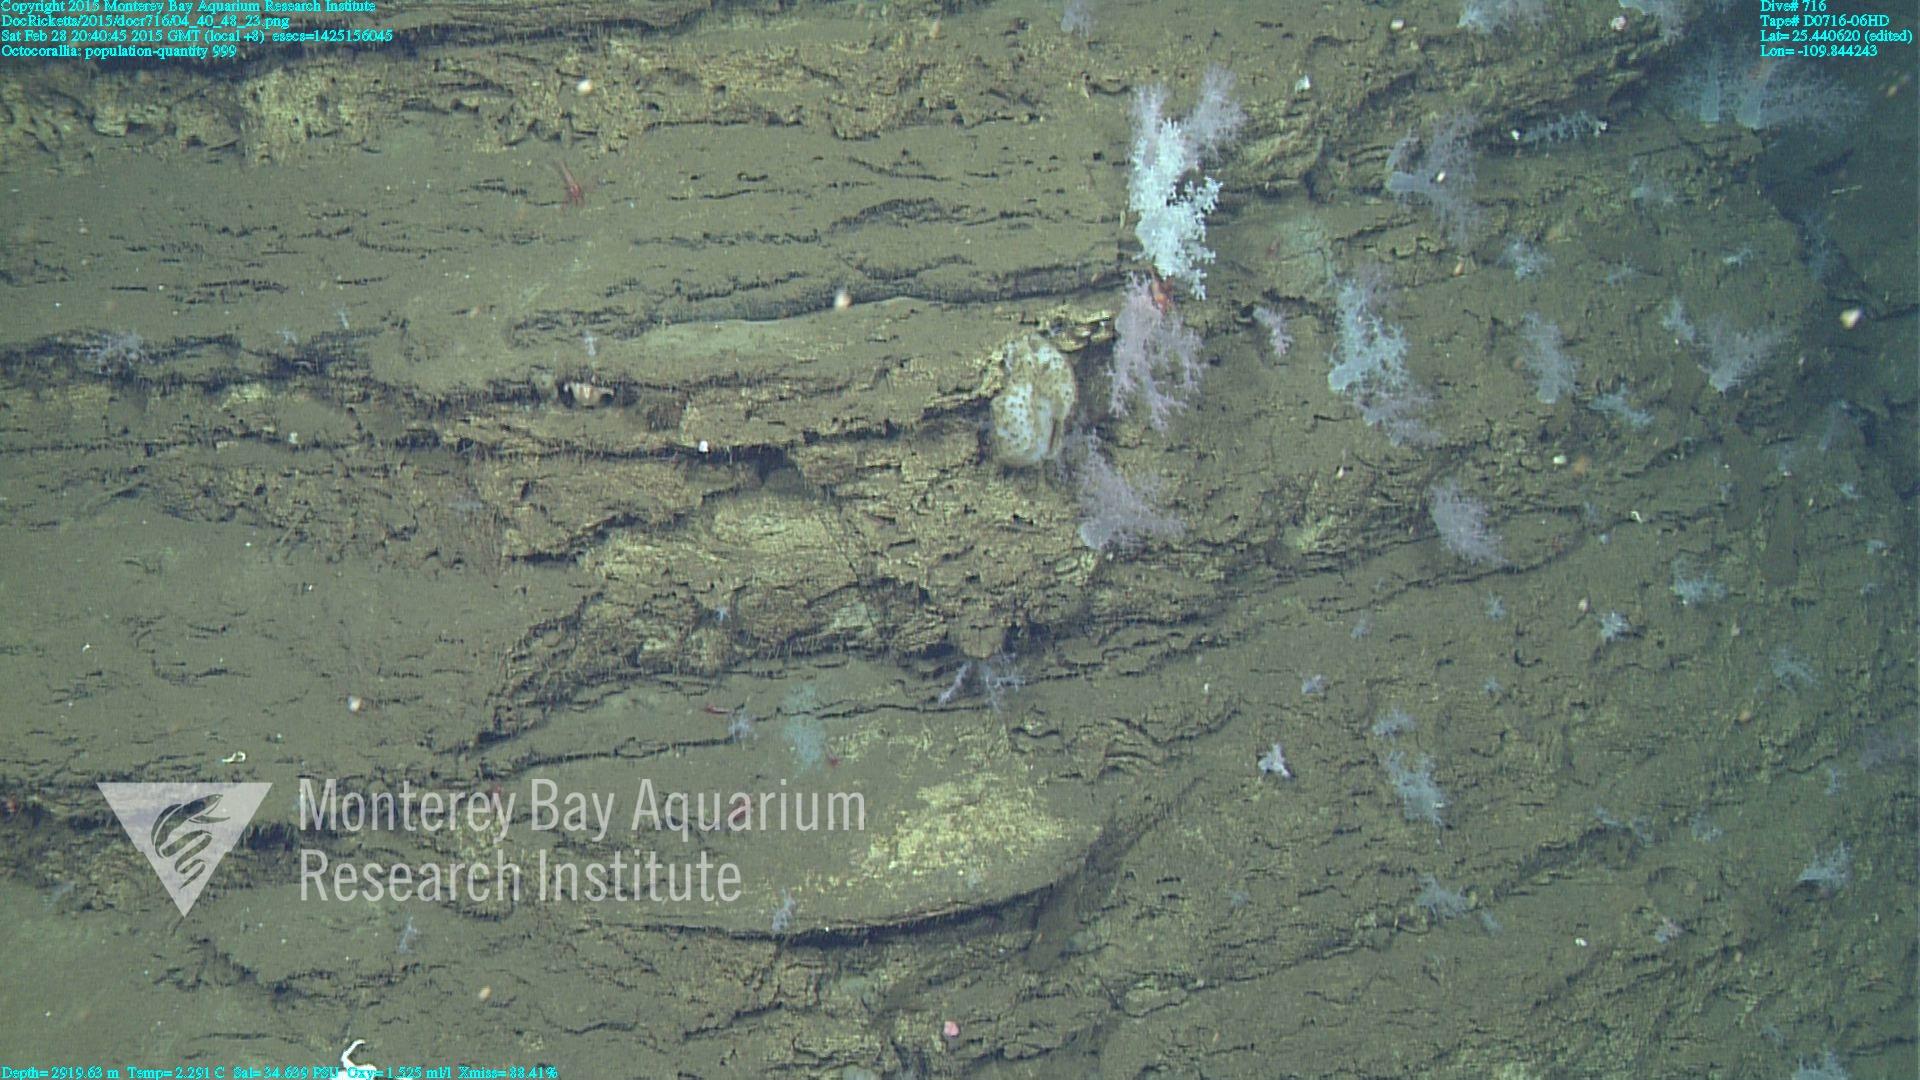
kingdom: Animalia
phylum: Cnidaria
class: Anthozoa
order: Malacalcyonacea
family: Alcyoniidae
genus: Gersemia
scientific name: Gersemia juliepackardae
